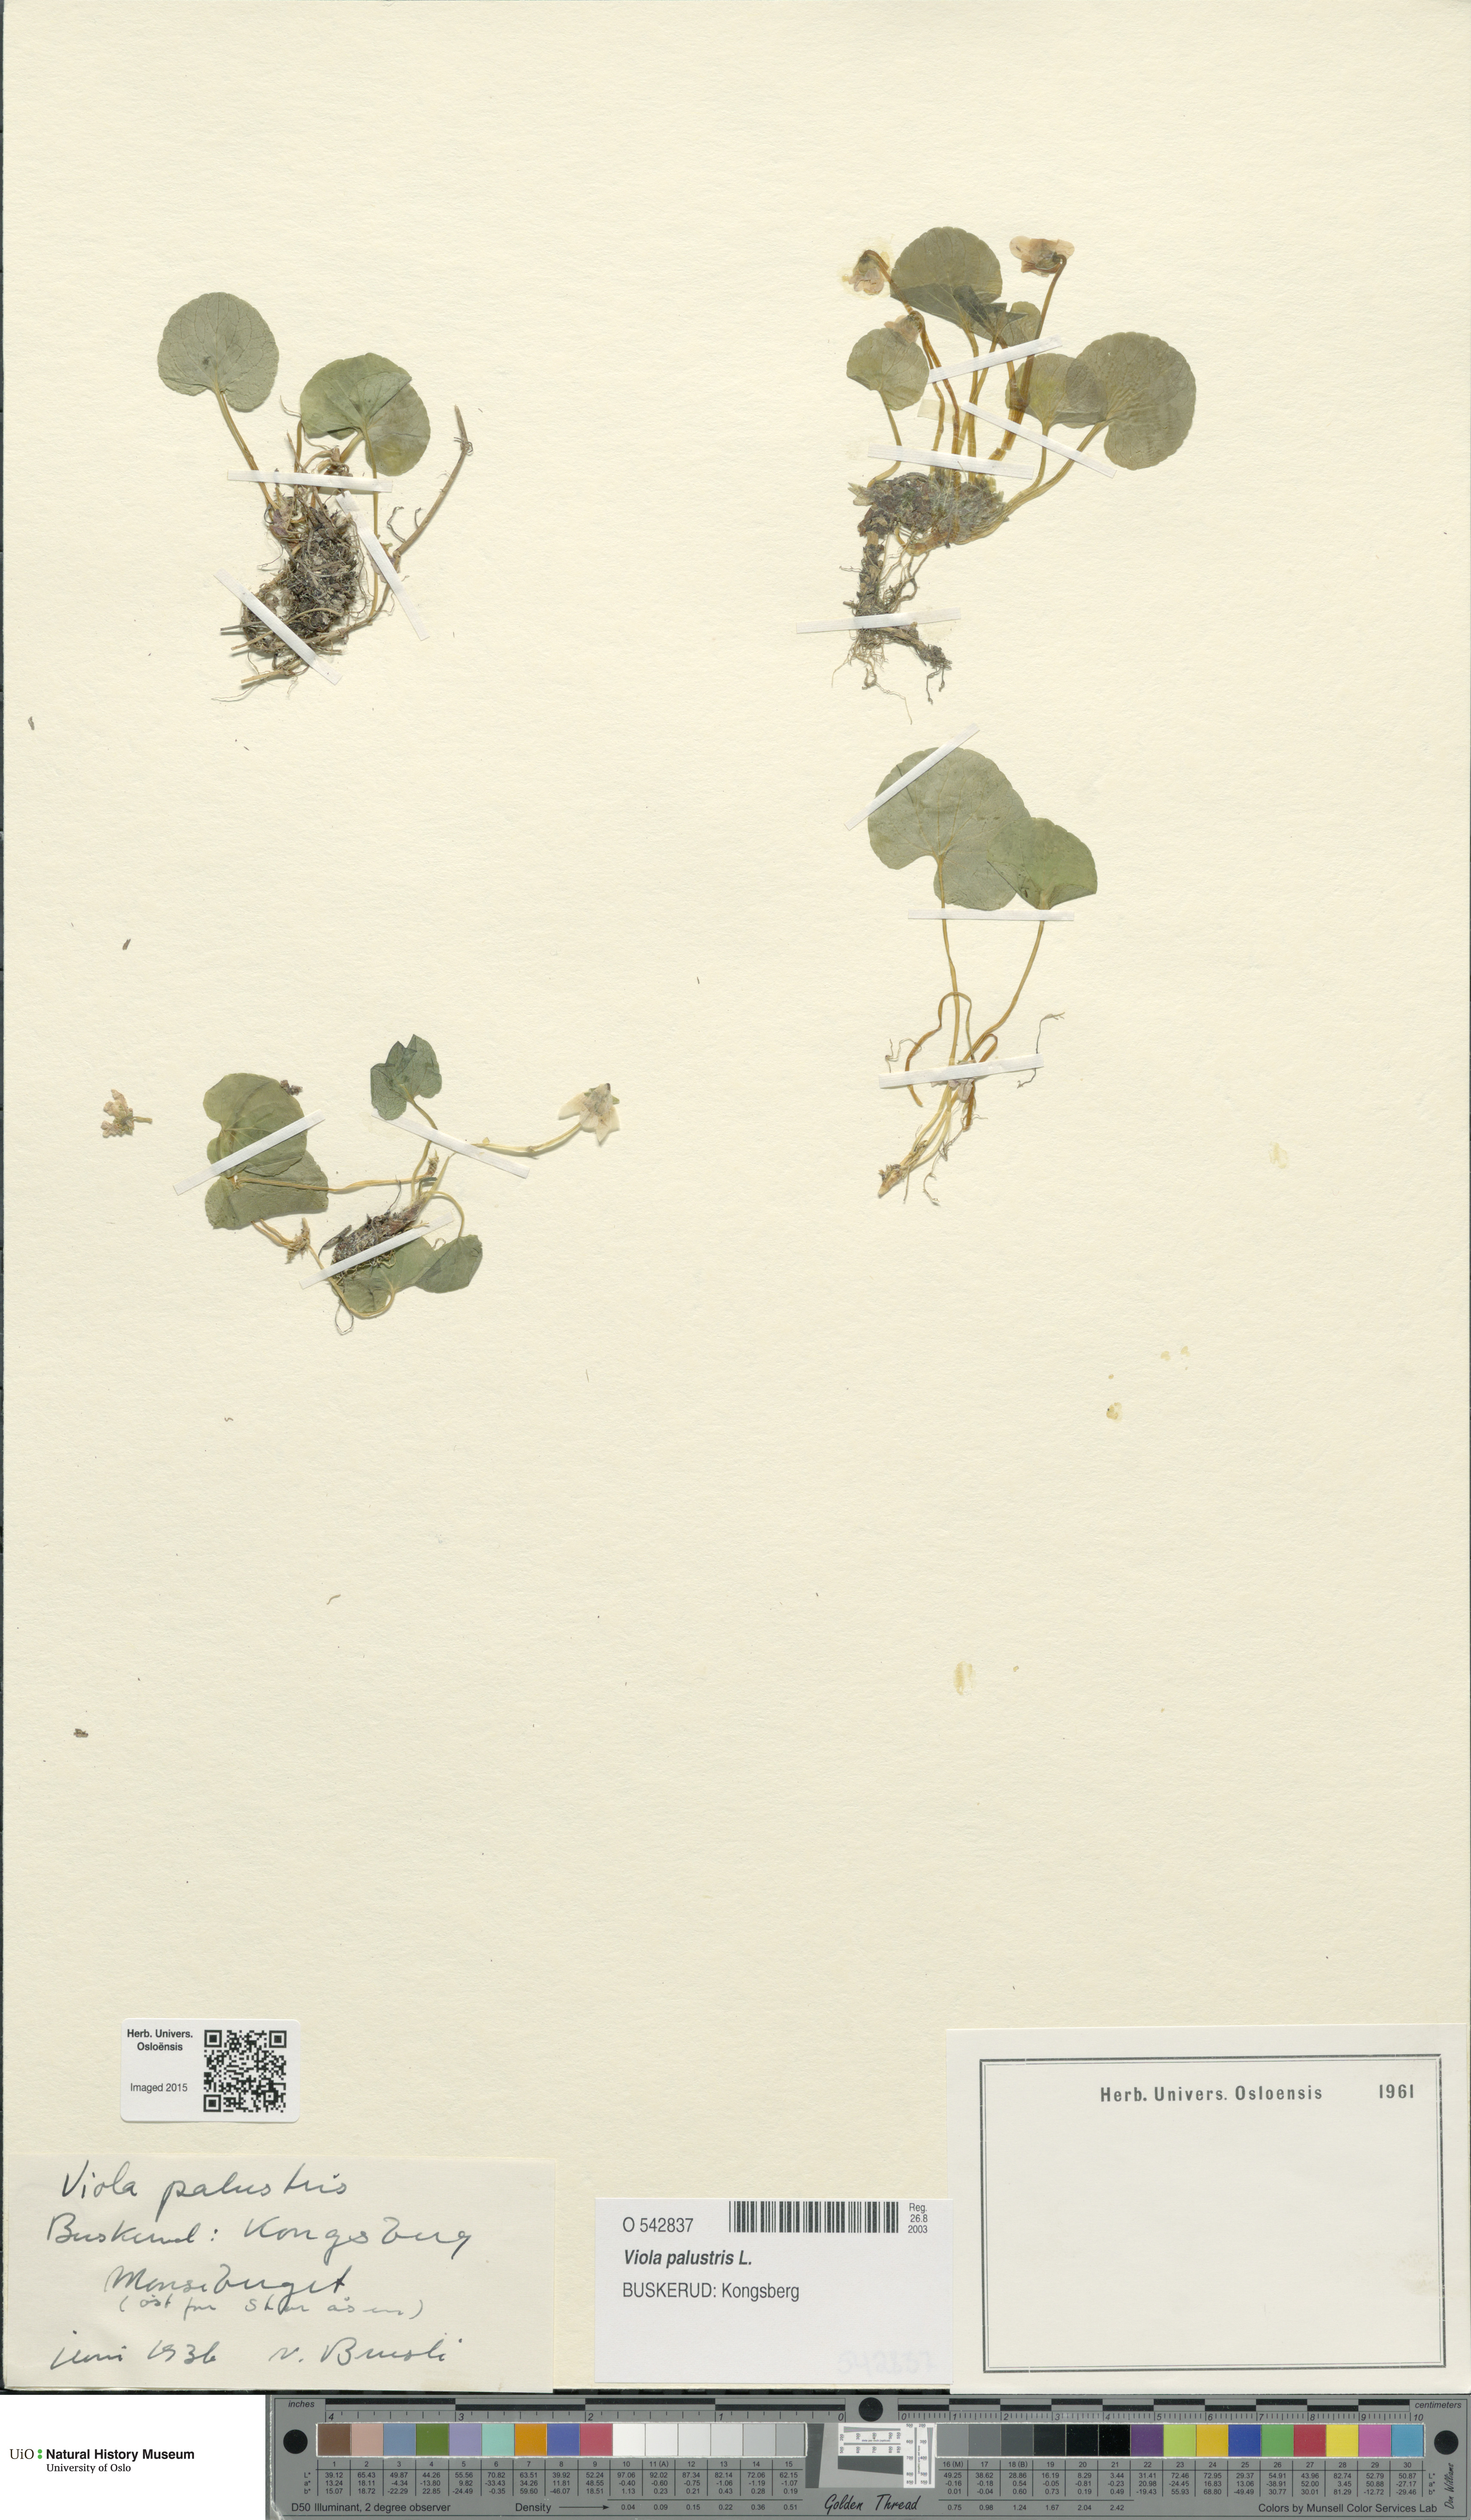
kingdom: Plantae
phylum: Tracheophyta
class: Magnoliopsida
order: Malpighiales
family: Violaceae
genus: Viola
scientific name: Viola palustris
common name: Marsh violet
